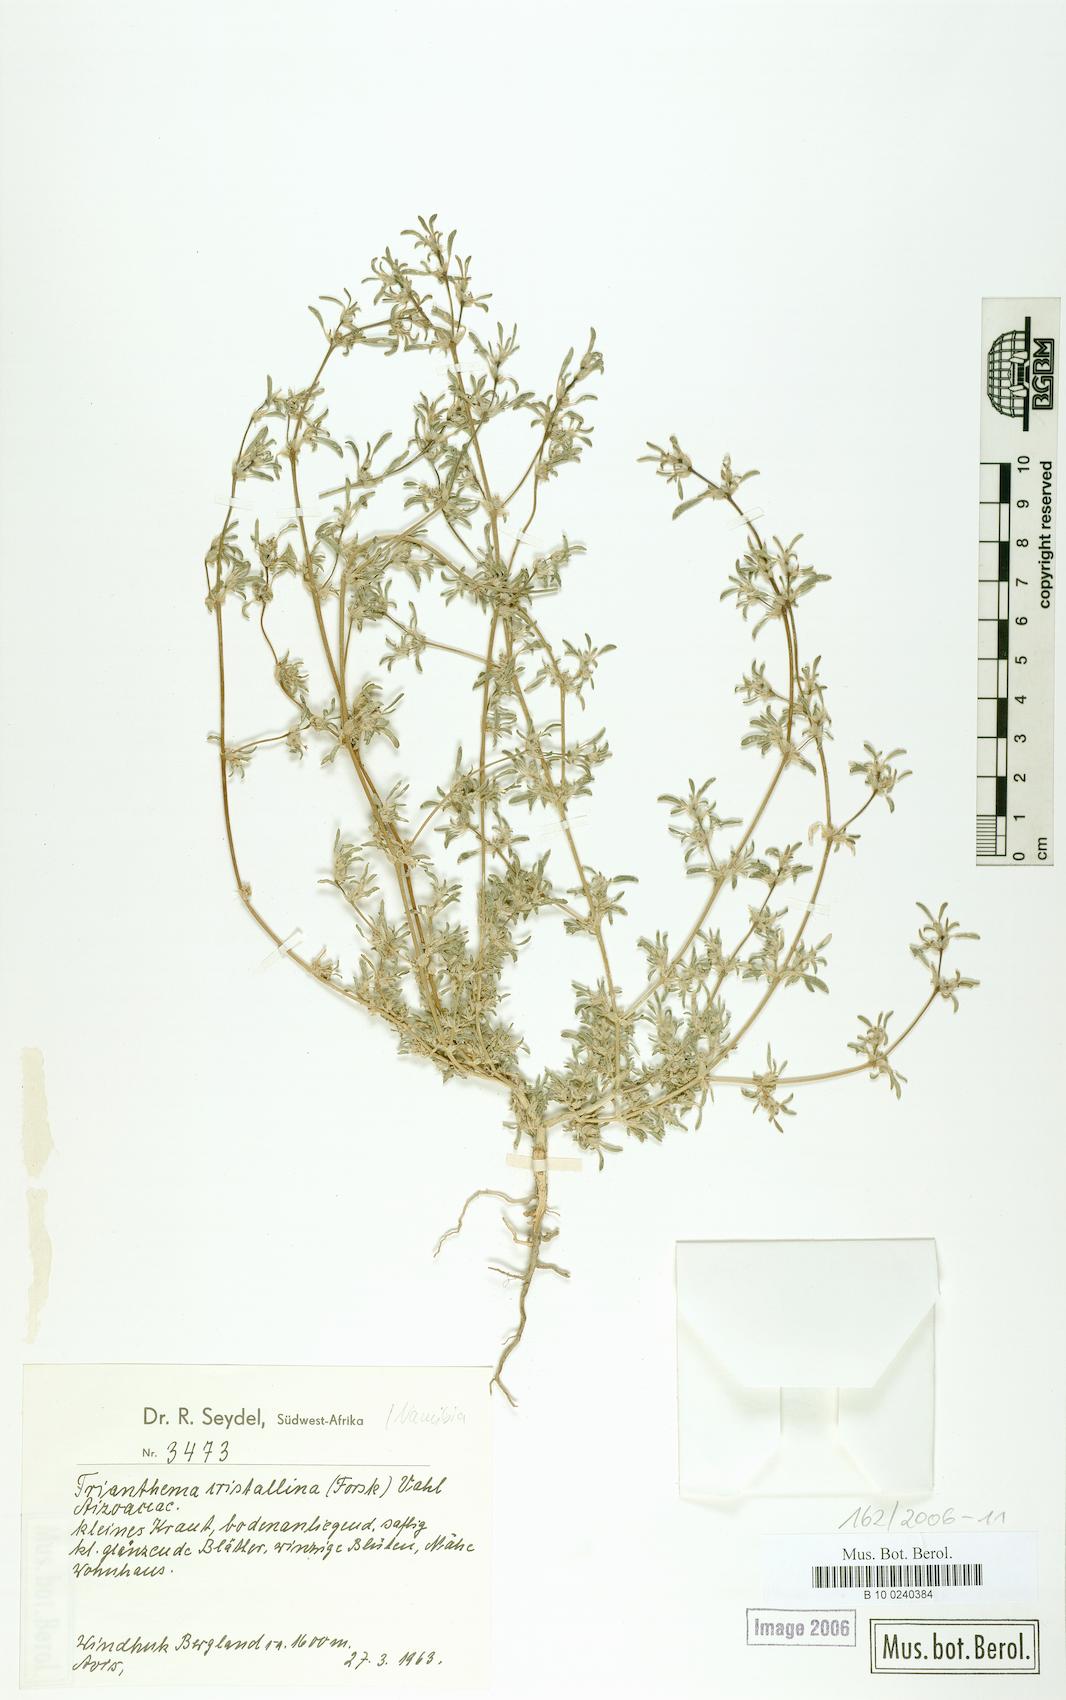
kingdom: Plantae
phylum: Tracheophyta
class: Magnoliopsida
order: Caryophyllales
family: Aizoaceae
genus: Trianthema
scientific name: Trianthema crystallinum
